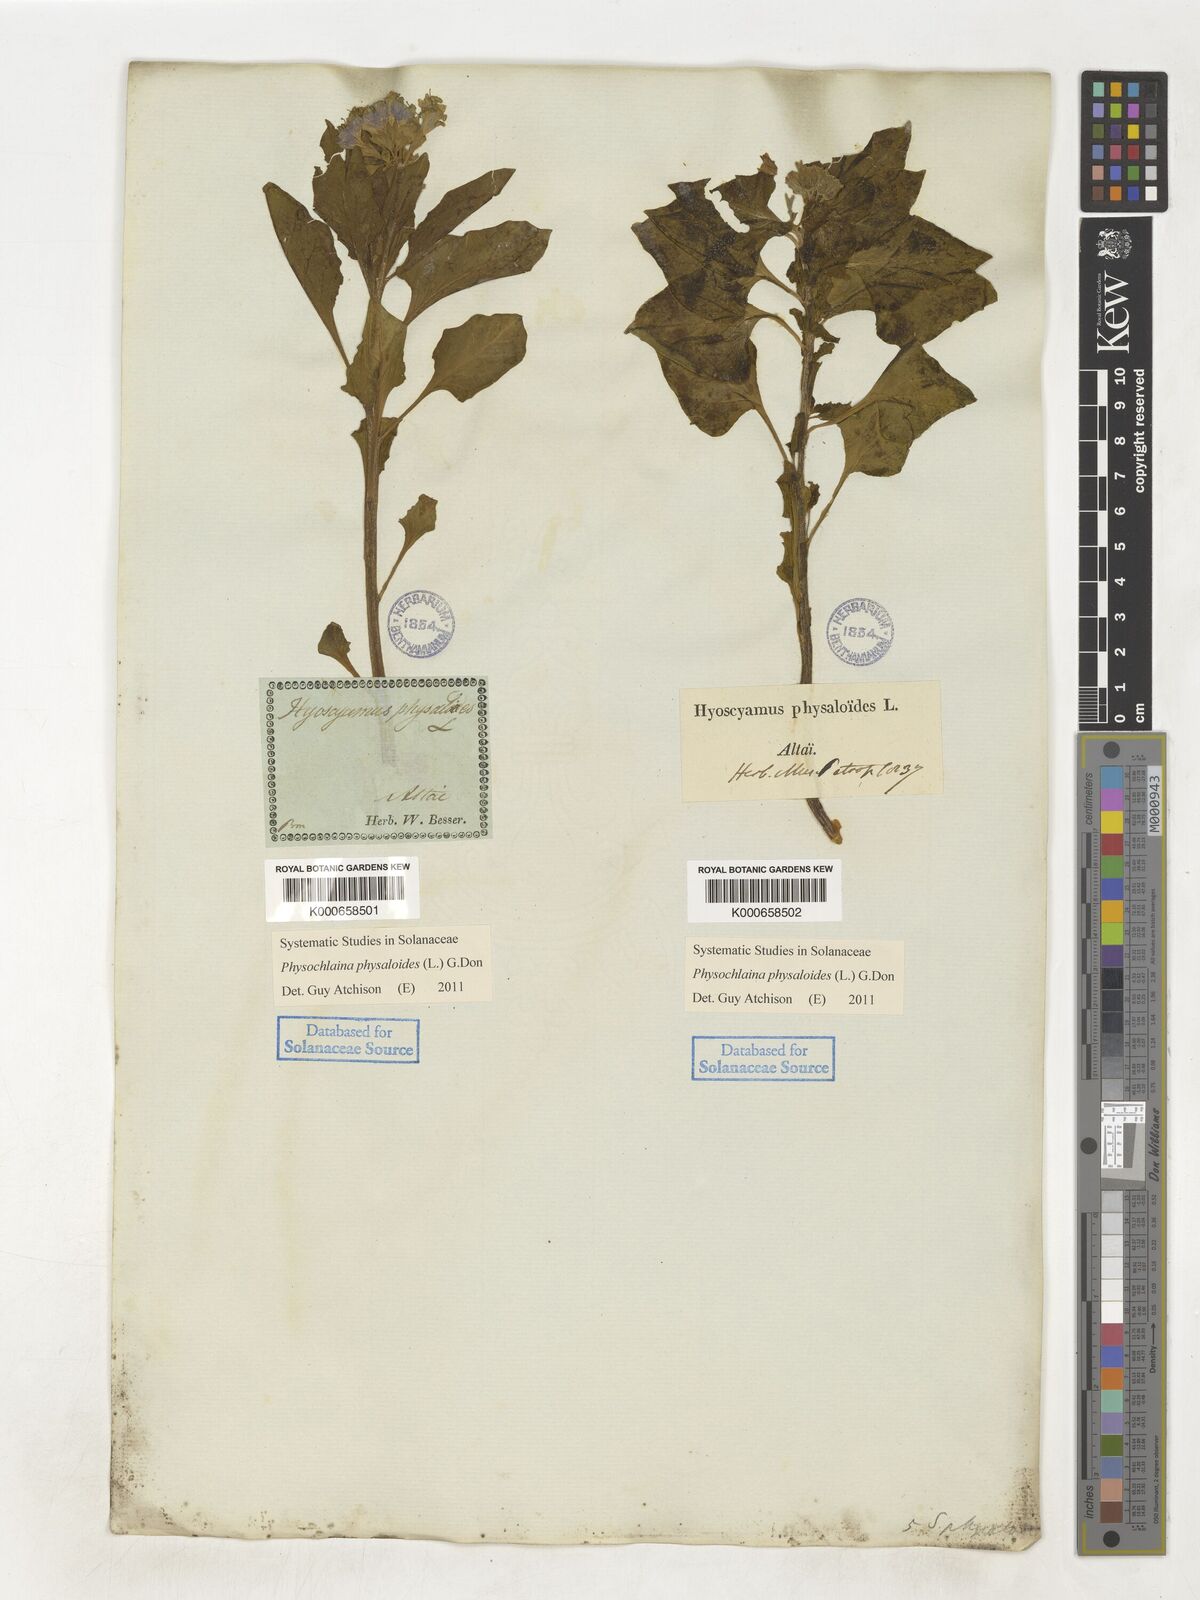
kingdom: Plantae
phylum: Tracheophyta
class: Magnoliopsida
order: Solanales
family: Solanaceae
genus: Physochlaina
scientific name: Physochlaina physaloides
